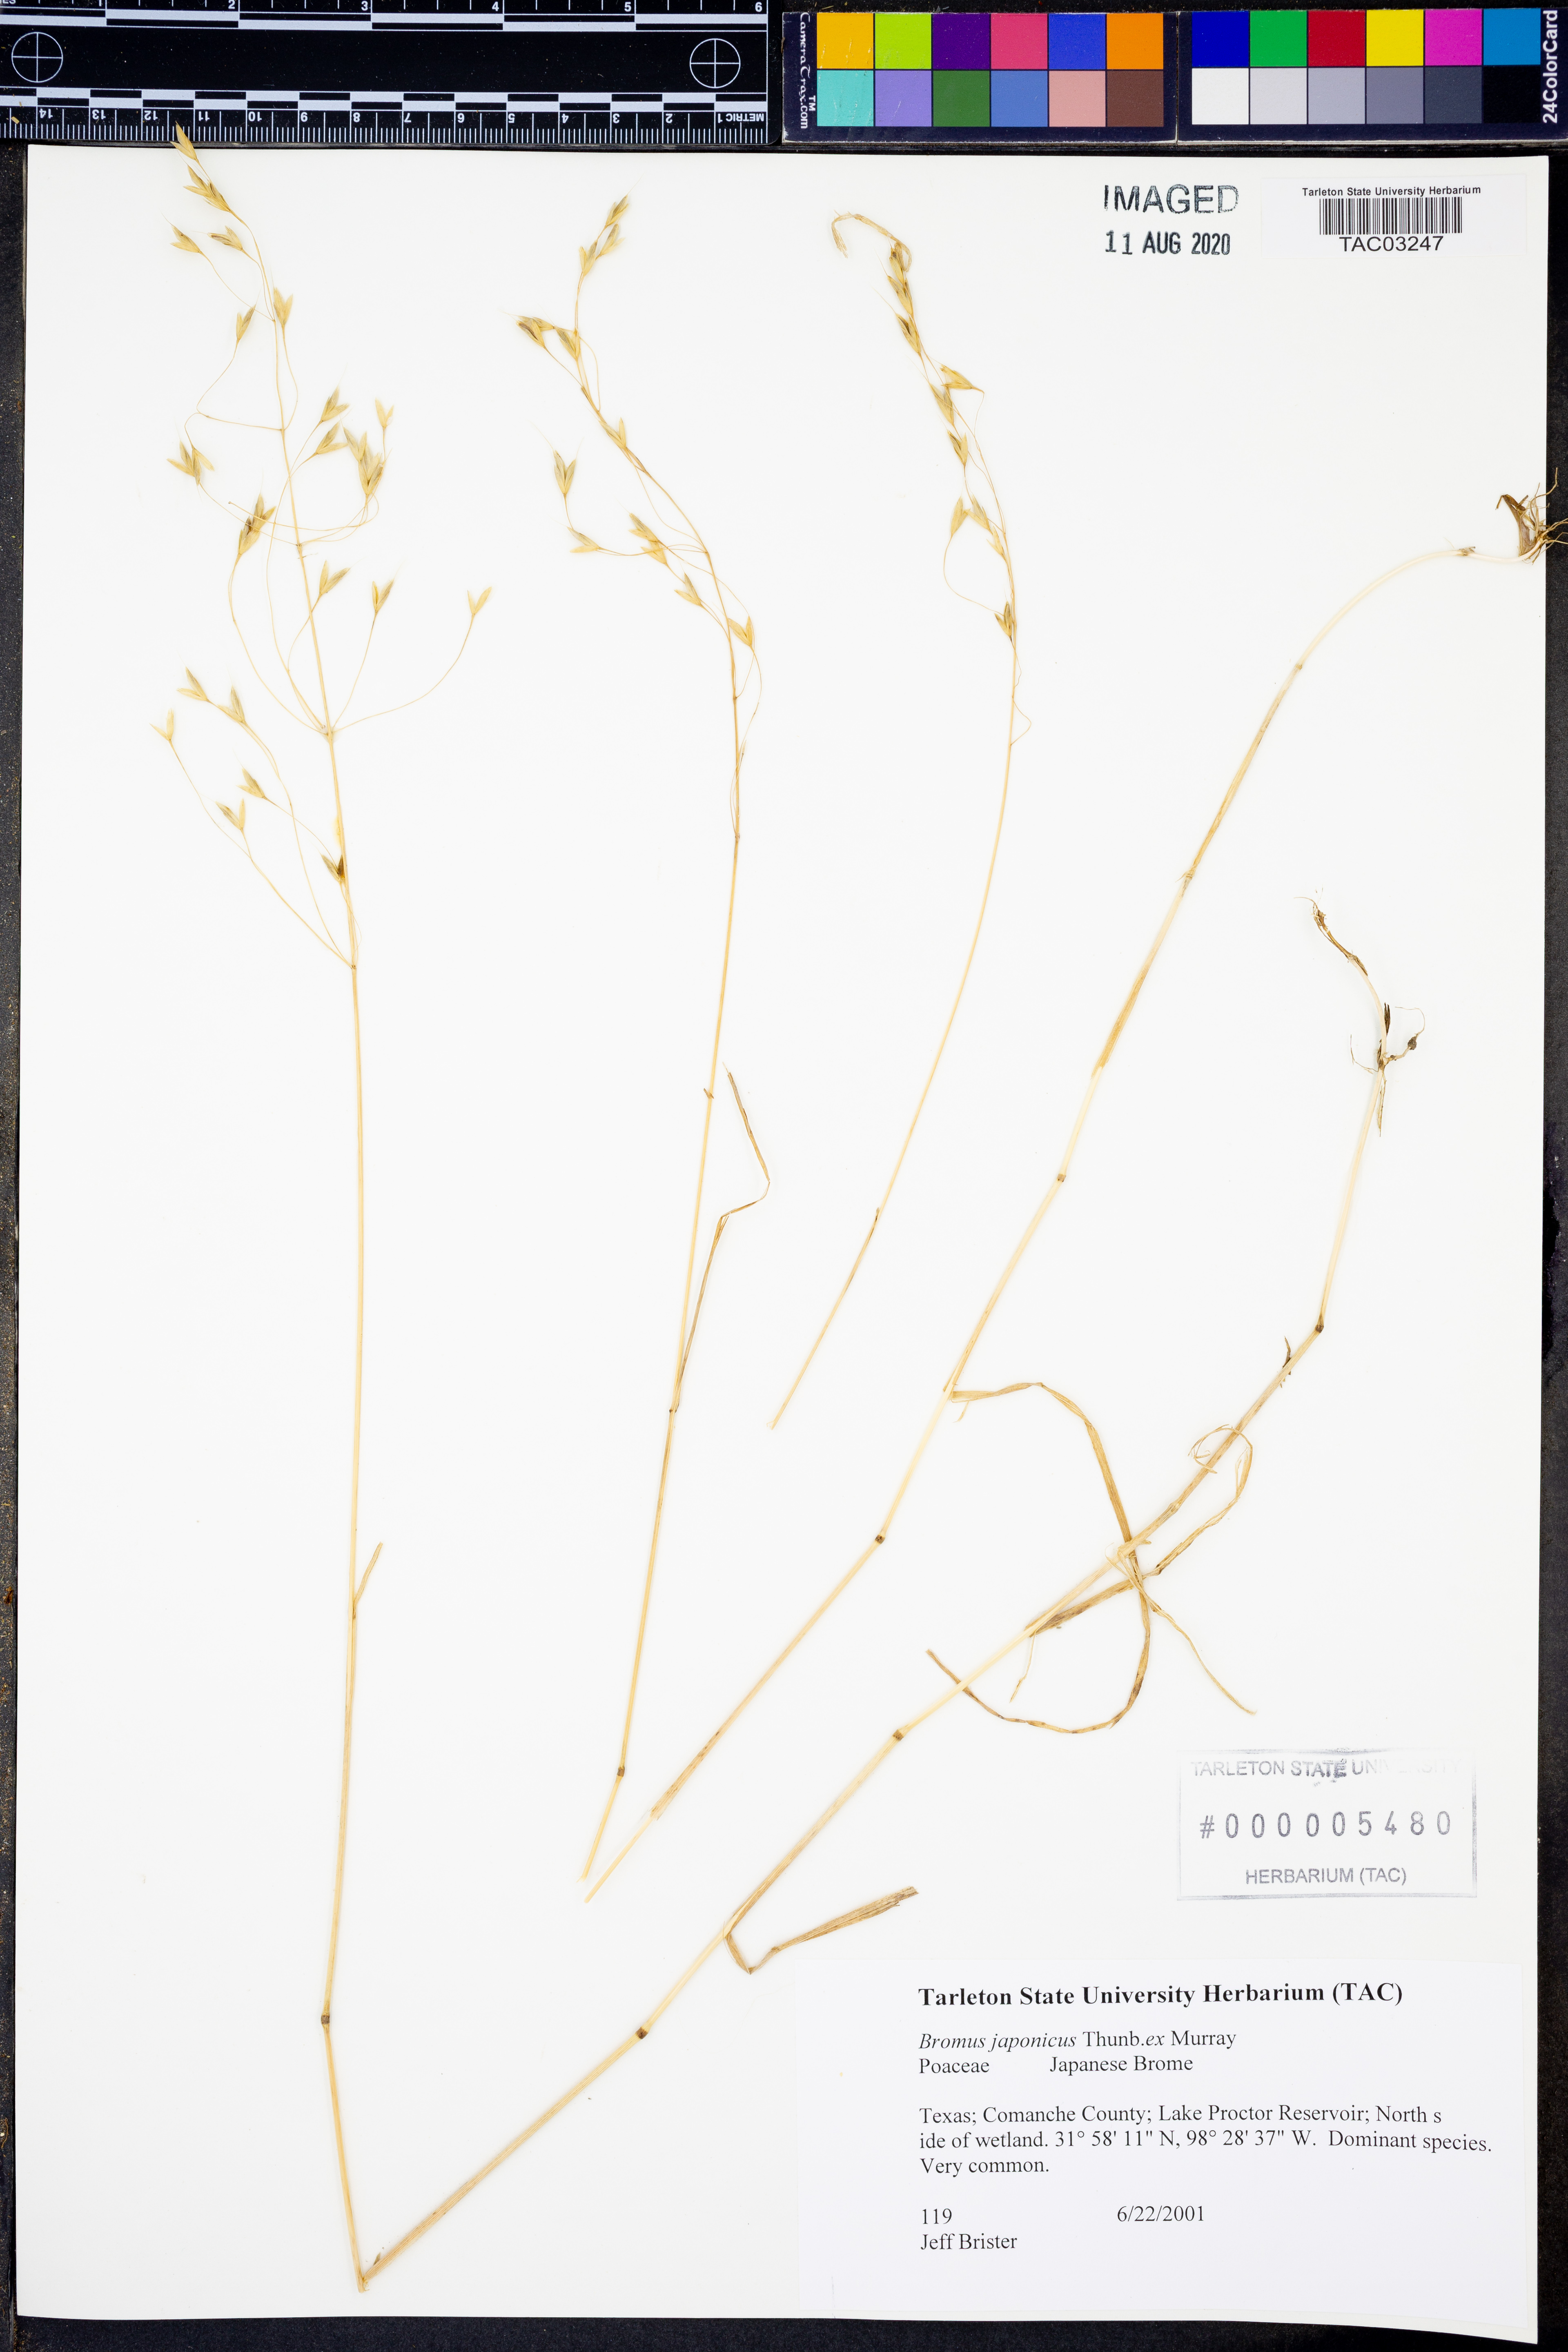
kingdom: Plantae
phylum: Tracheophyta
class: Liliopsida
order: Poales
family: Poaceae
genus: Bromus
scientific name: Bromus japonicus
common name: Japanese brome
